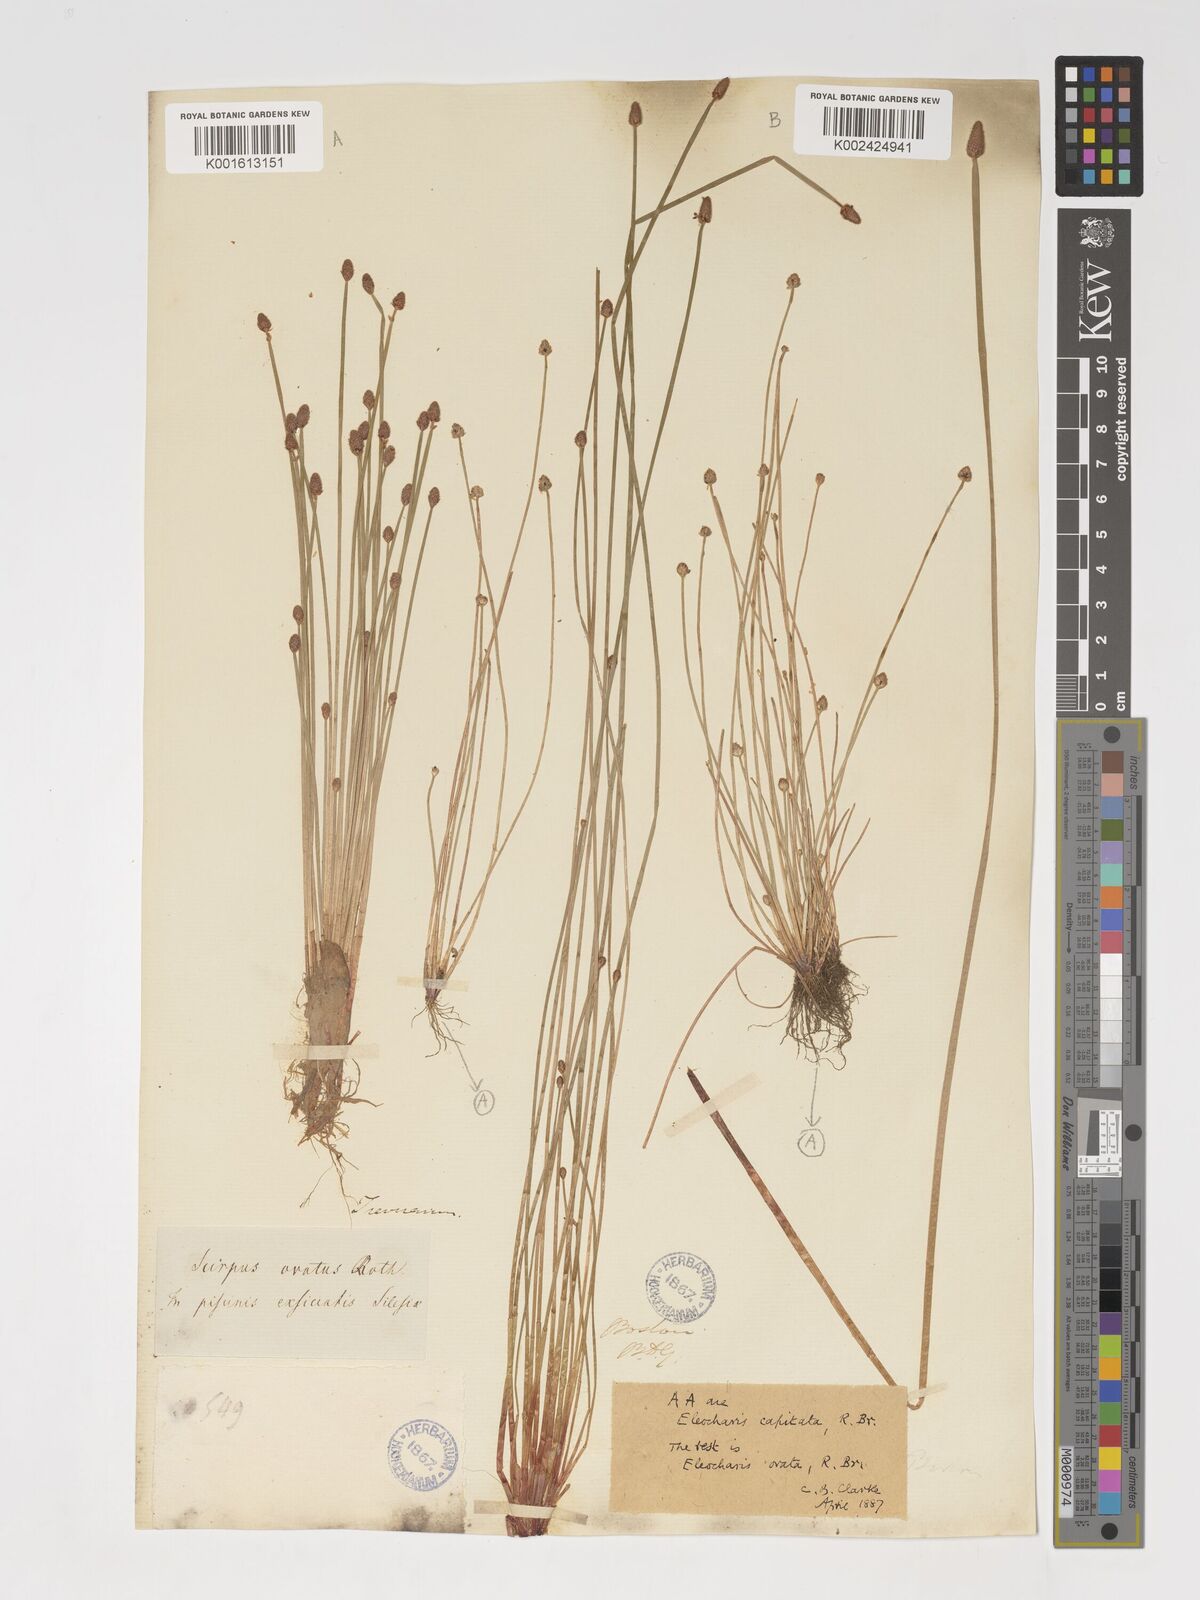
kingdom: Plantae
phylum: Tracheophyta
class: Liliopsida
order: Poales
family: Cyperaceae
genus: Eleocharis
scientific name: Eleocharis ovata
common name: Oval spike-rush
